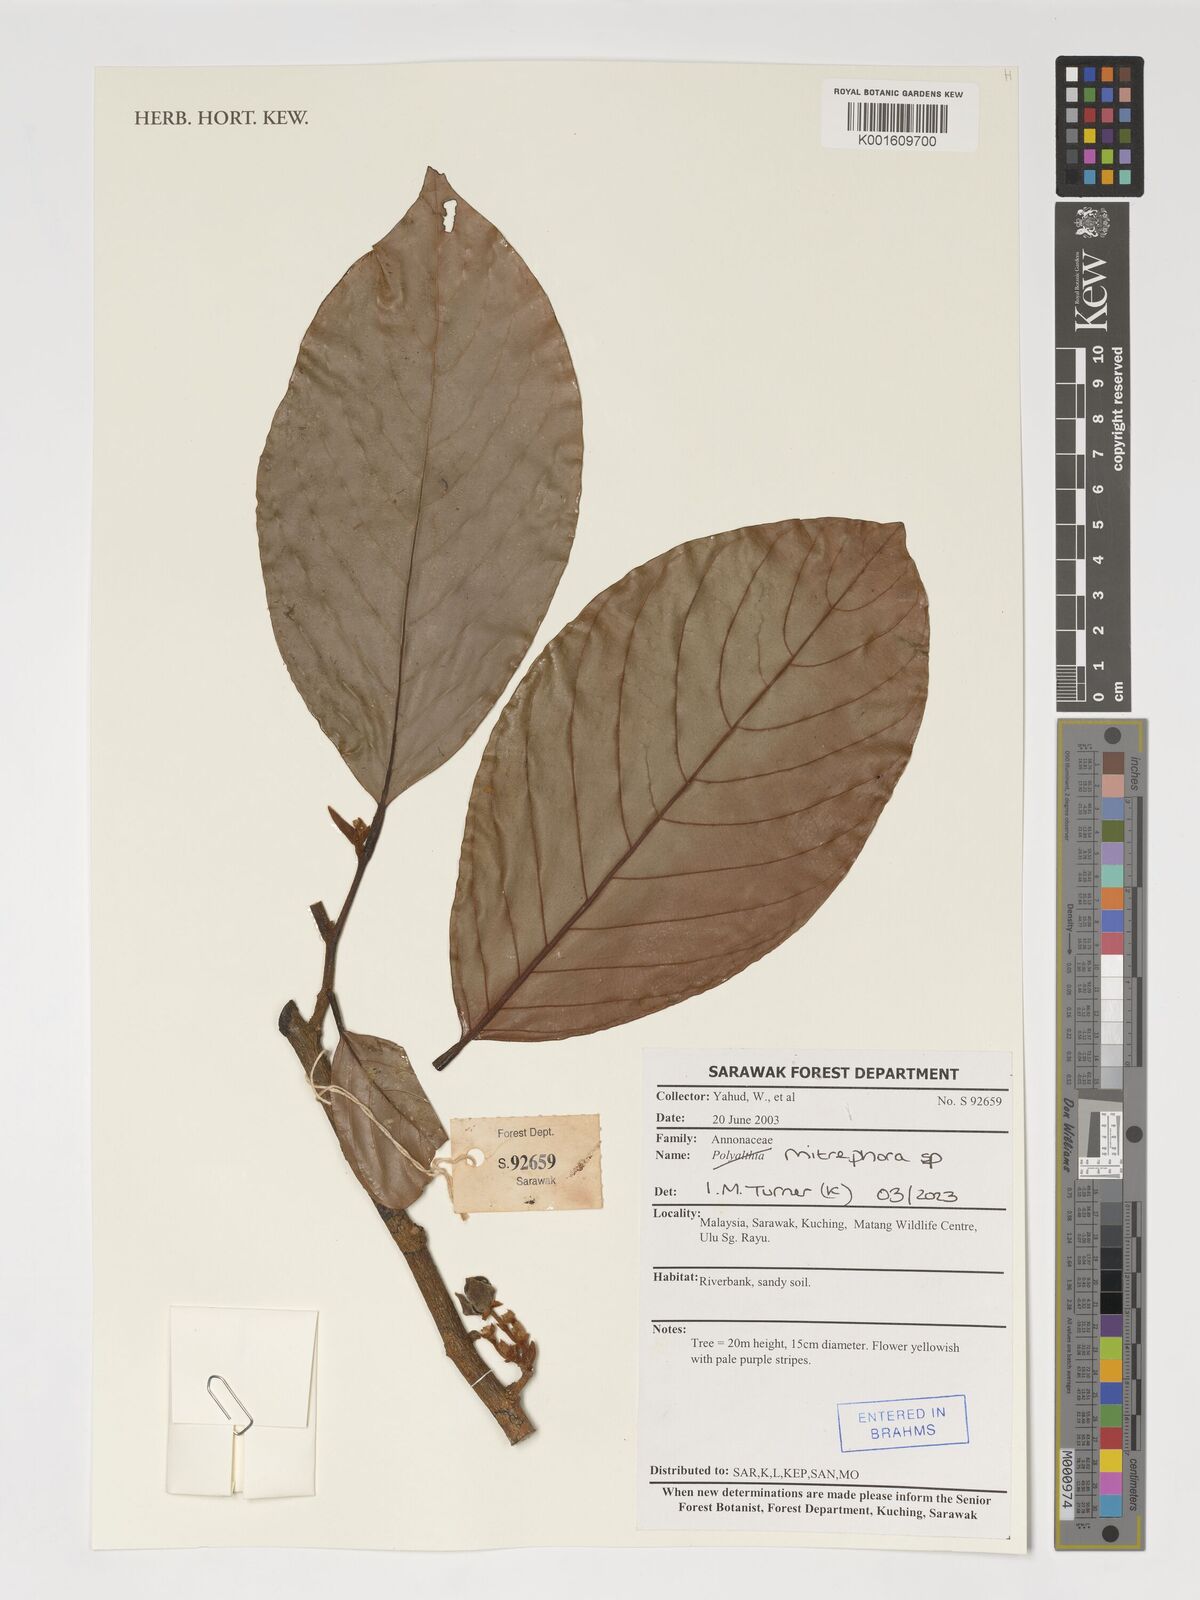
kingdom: Plantae
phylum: Tracheophyta
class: Magnoliopsida
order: Magnoliales
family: Annonaceae
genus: Mitrephora
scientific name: Mitrephora
